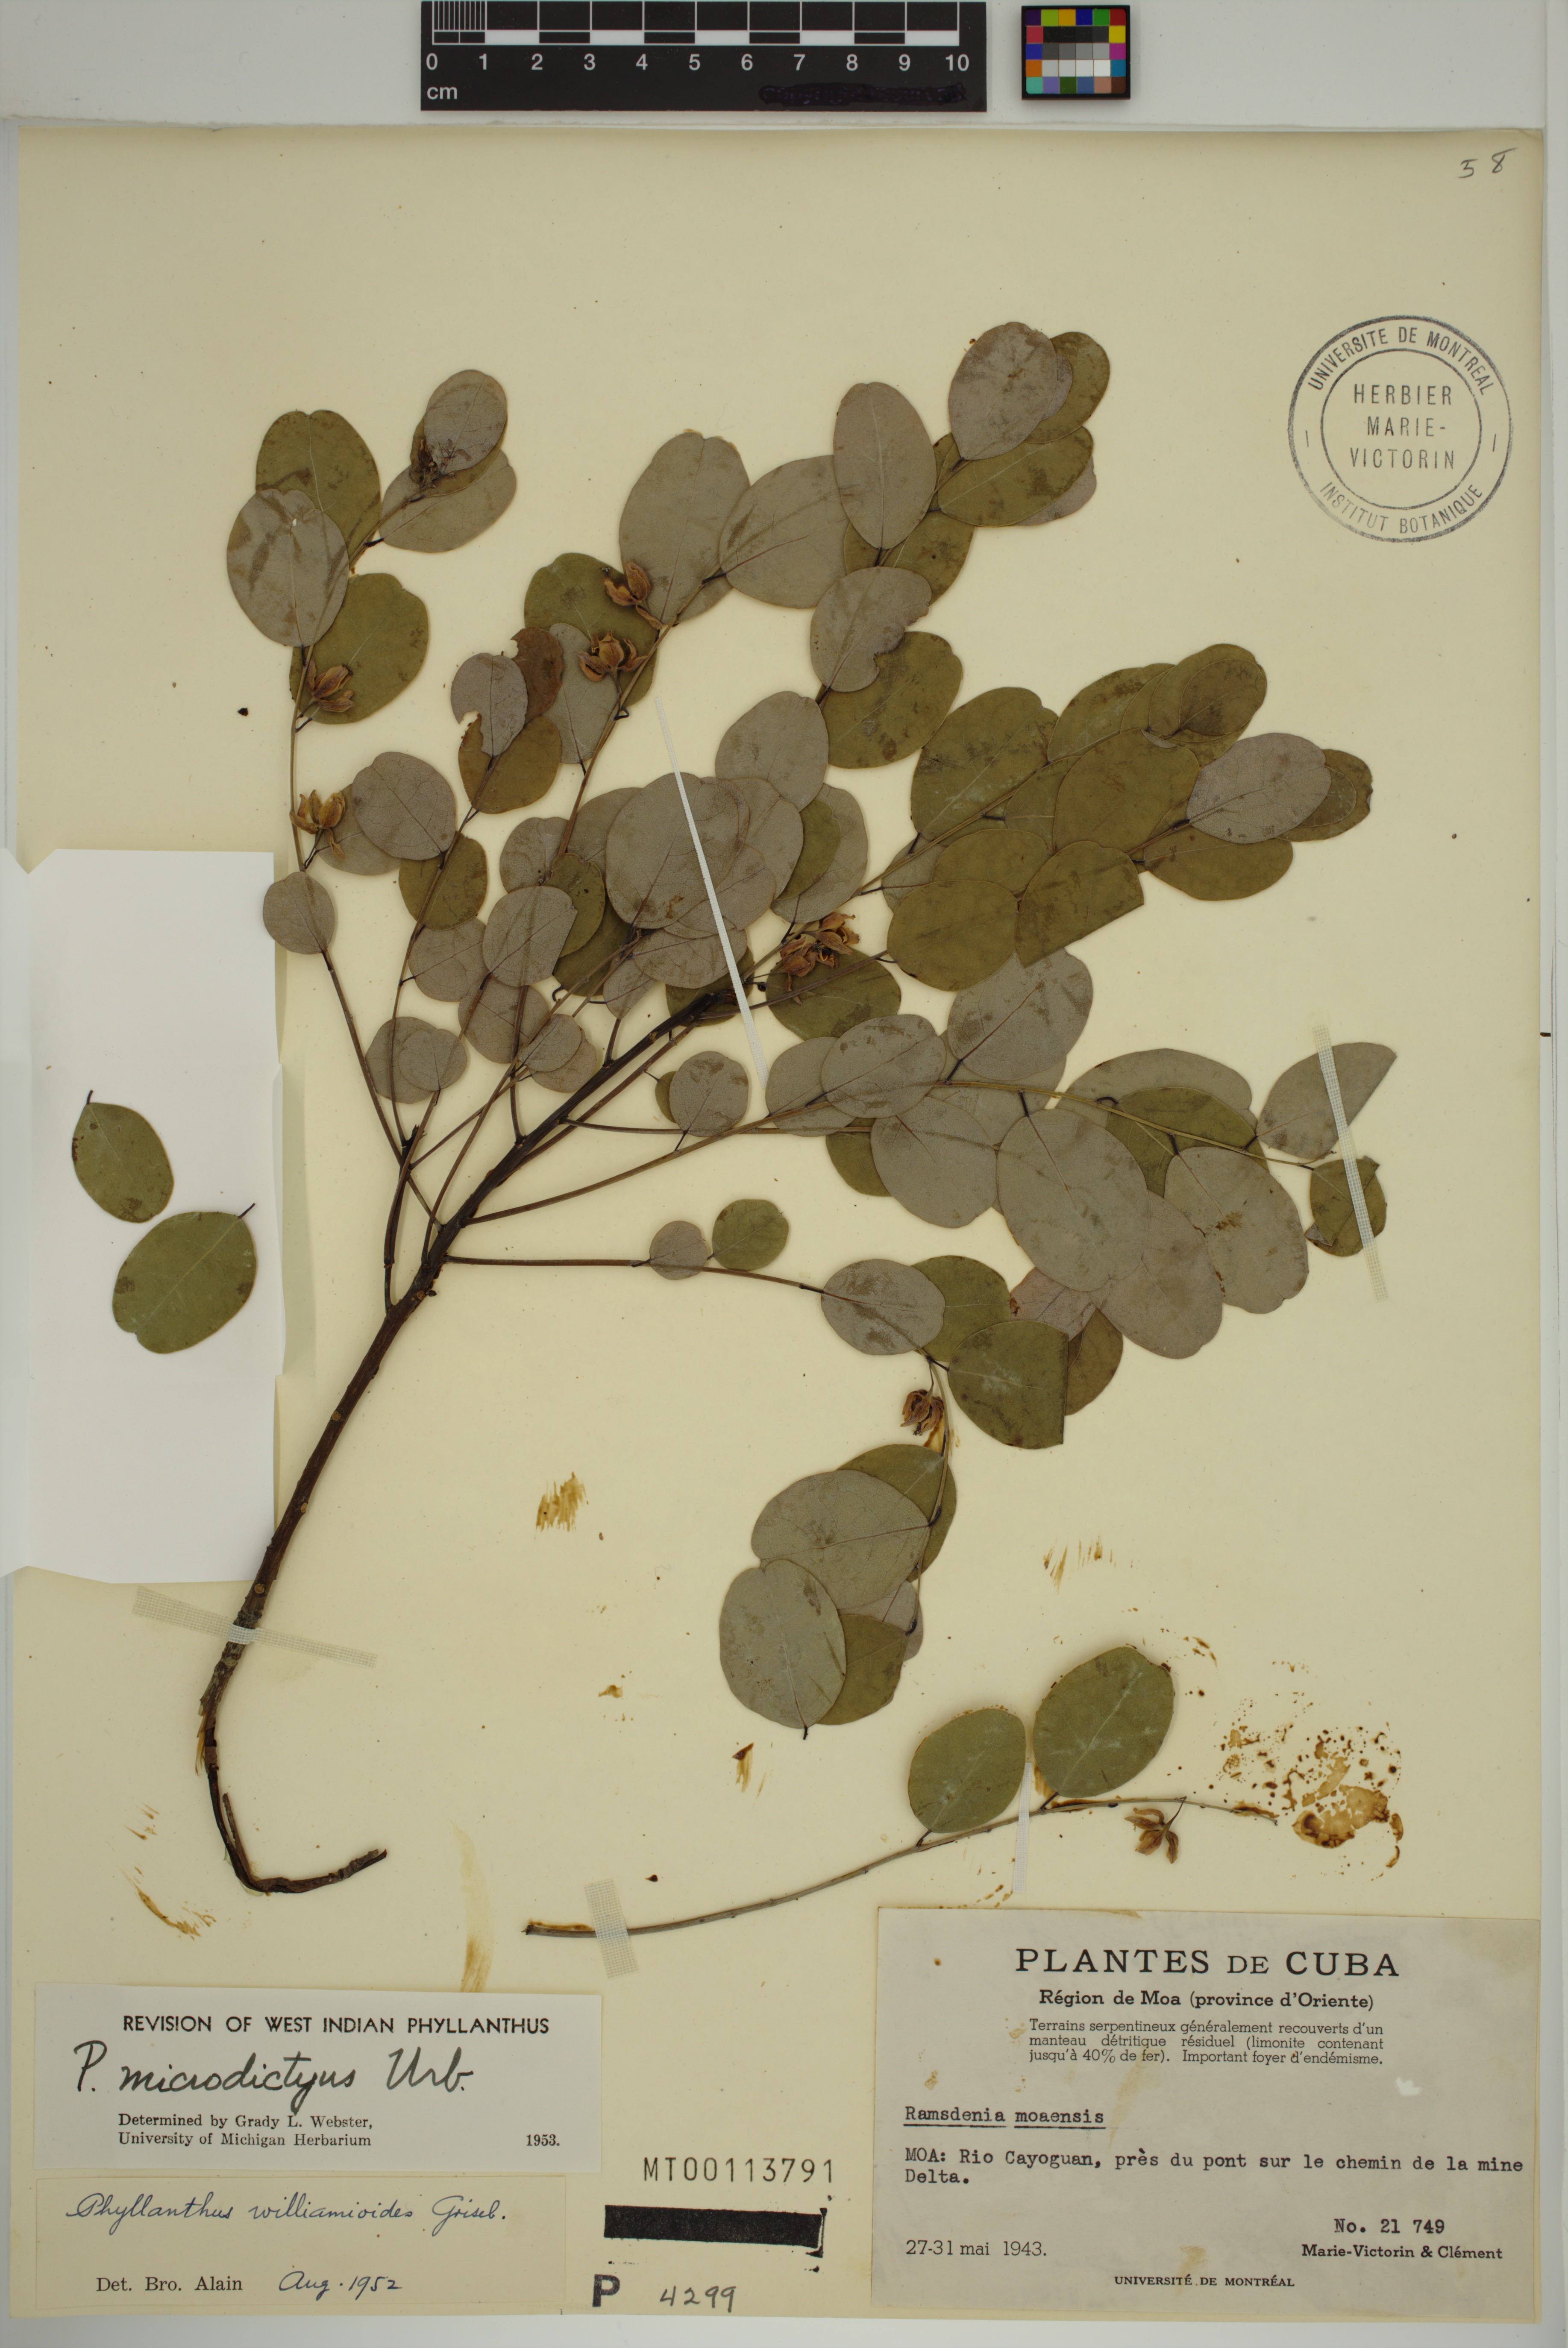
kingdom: Plantae
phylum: Tracheophyta
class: Magnoliopsida
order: Malpighiales
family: Phyllanthaceae
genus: Phyllanthus
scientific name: Phyllanthus microdictyus
